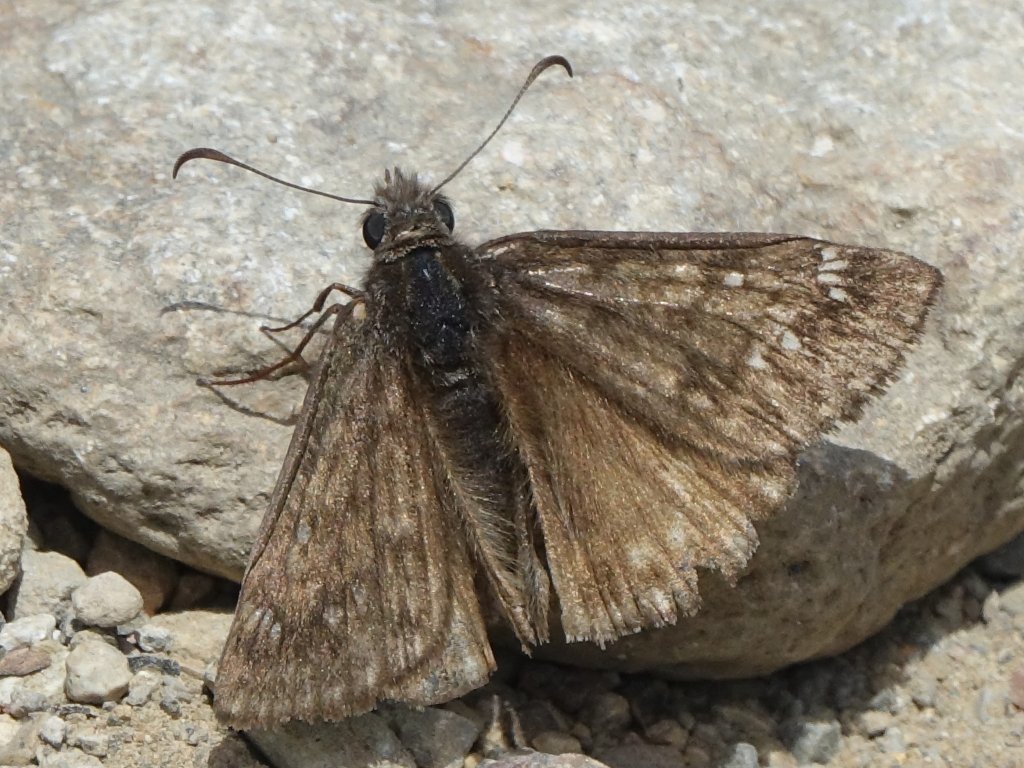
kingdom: Animalia
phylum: Arthropoda
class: Insecta
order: Lepidoptera
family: Hesperiidae
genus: Erynnis
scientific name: Erynnis propertius
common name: Propertius Duskywing
